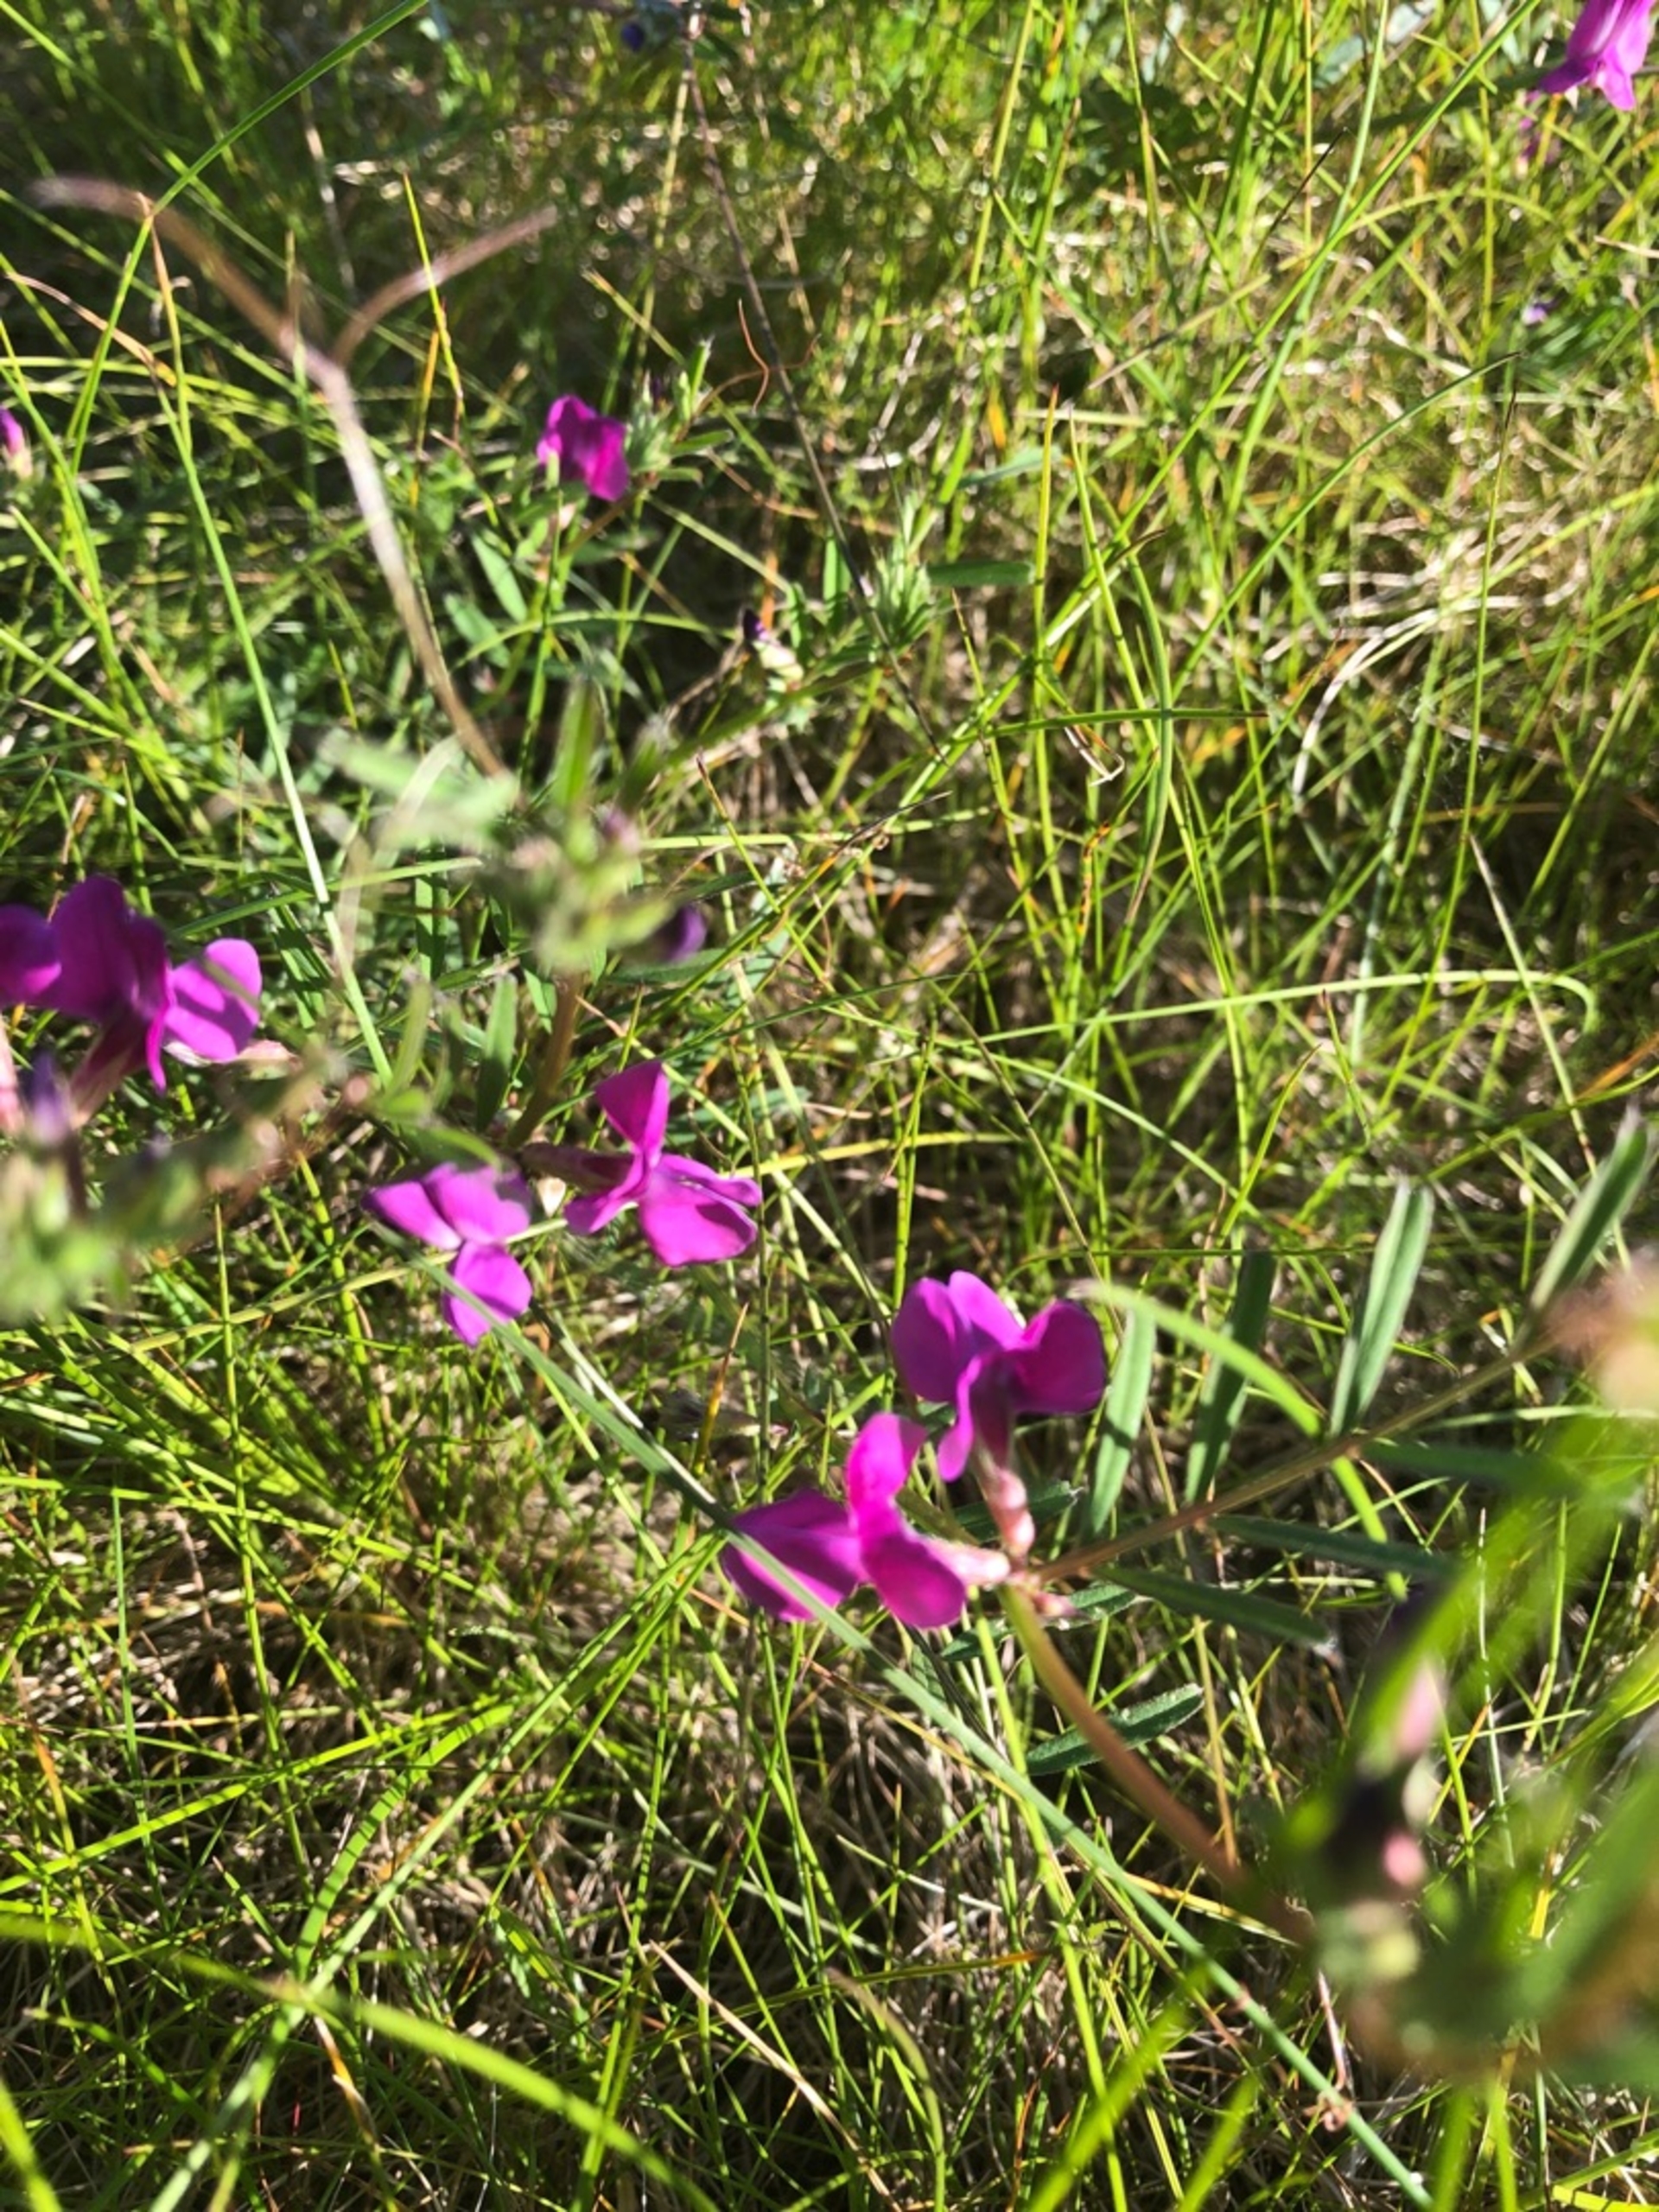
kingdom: Plantae
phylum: Tracheophyta
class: Magnoliopsida
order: Fabales
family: Fabaceae
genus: Vicia
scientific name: Vicia sativa
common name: Foder-vikke
